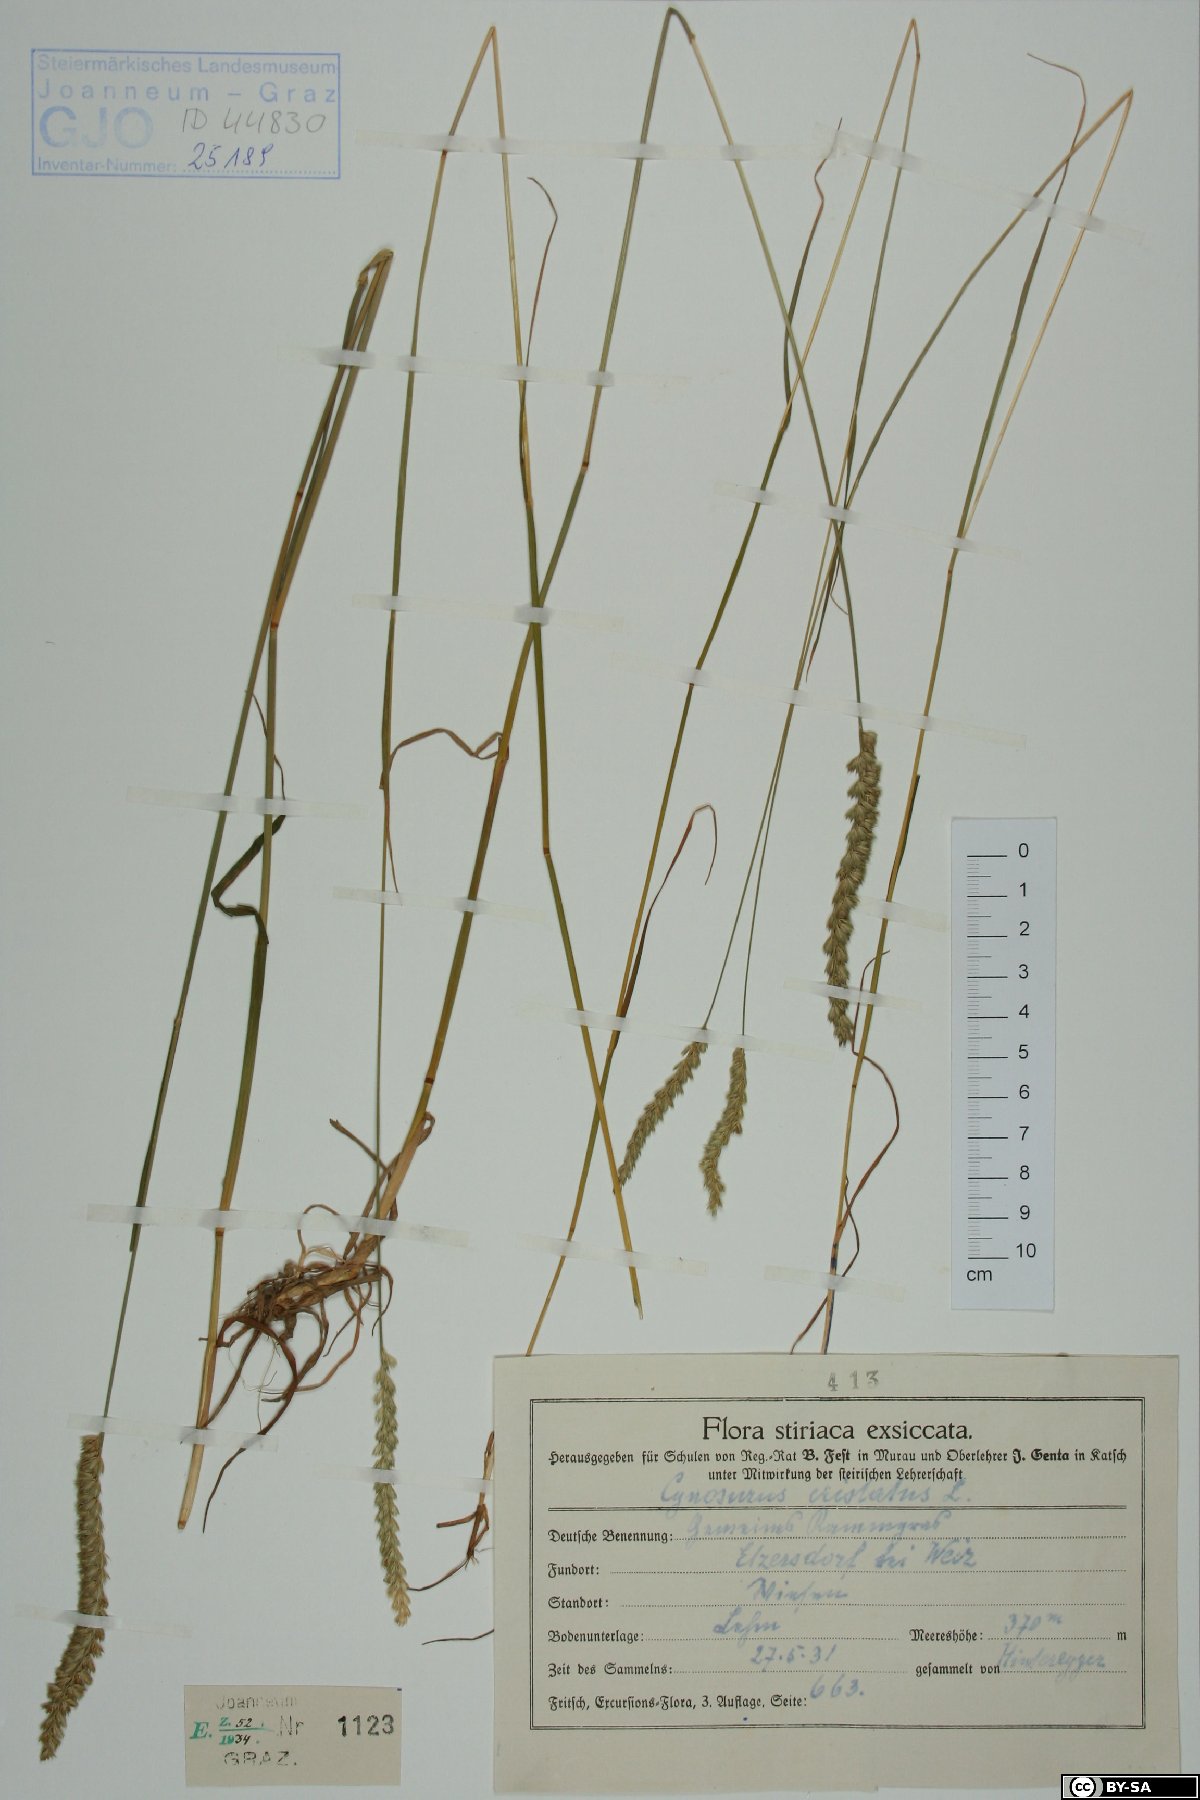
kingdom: Plantae
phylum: Tracheophyta
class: Liliopsida
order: Poales
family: Poaceae
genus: Cynosurus
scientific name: Cynosurus cristatus
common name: Crested dog's-tail
